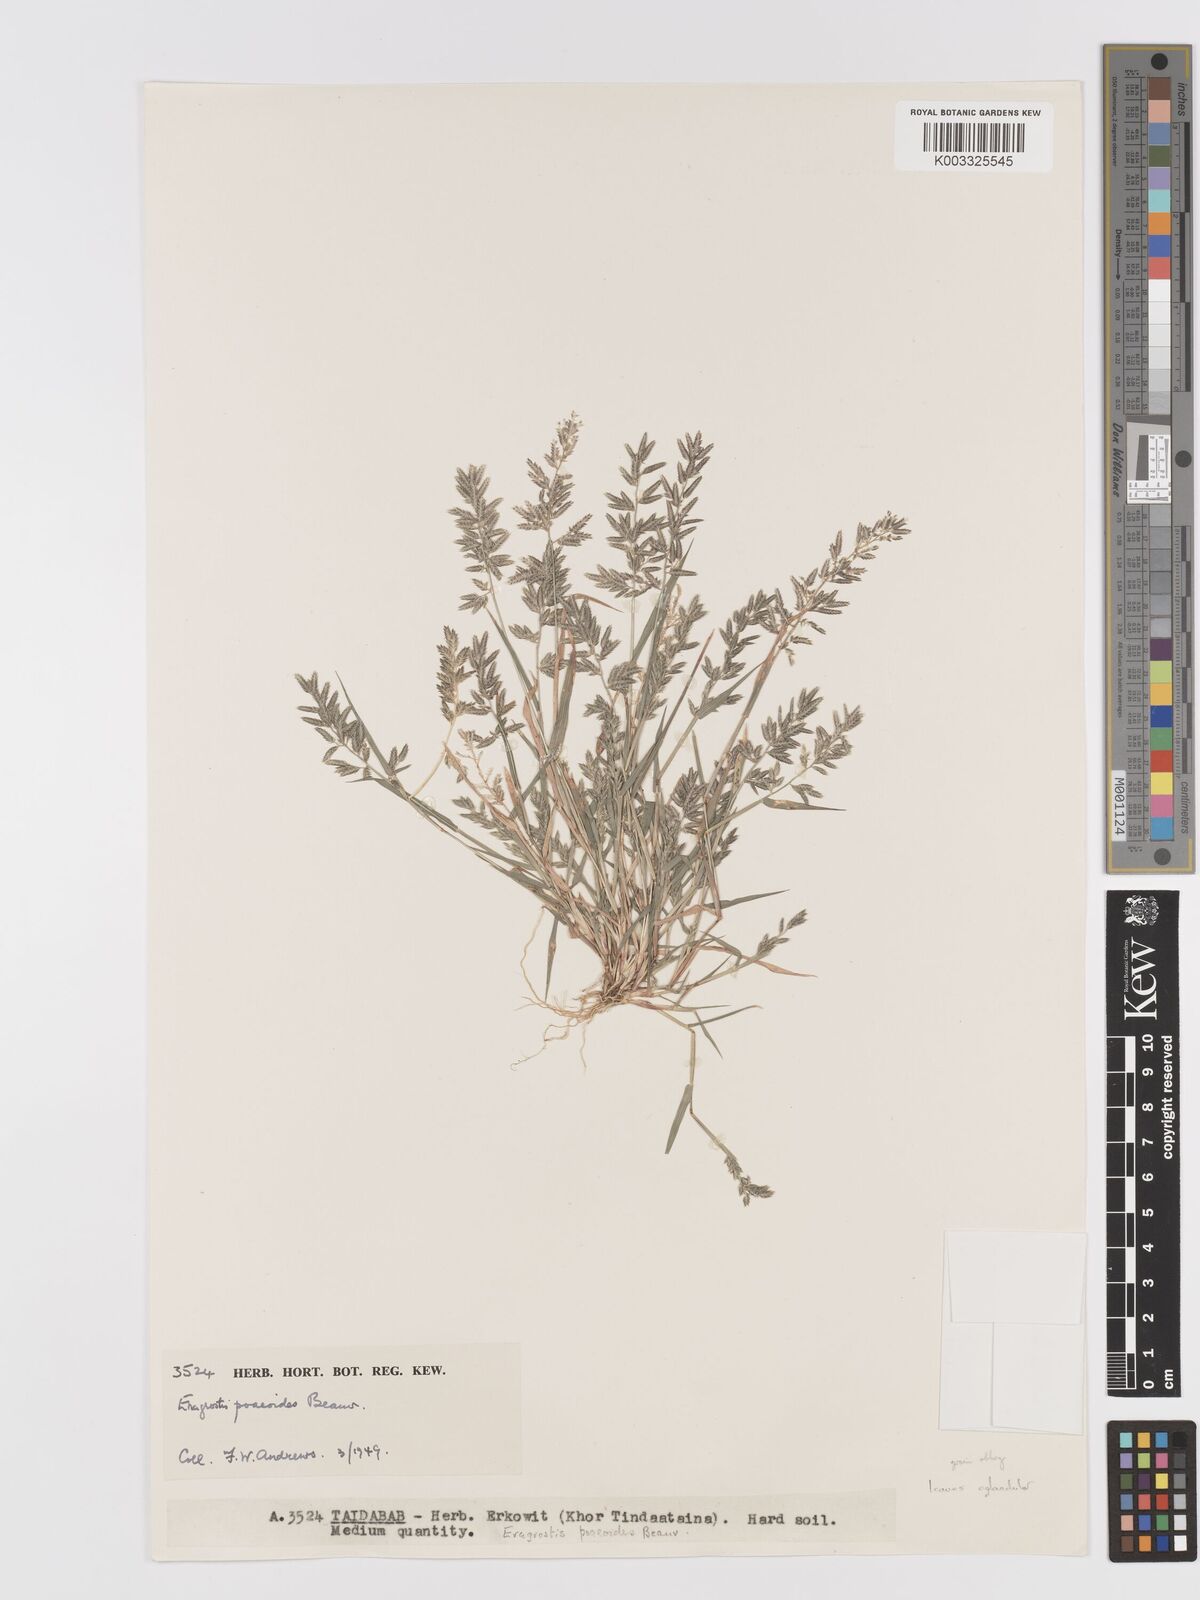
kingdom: Plantae
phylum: Tracheophyta
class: Liliopsida
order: Poales
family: Poaceae
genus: Eragrostis
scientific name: Eragrostis minor
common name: Small love-grass
